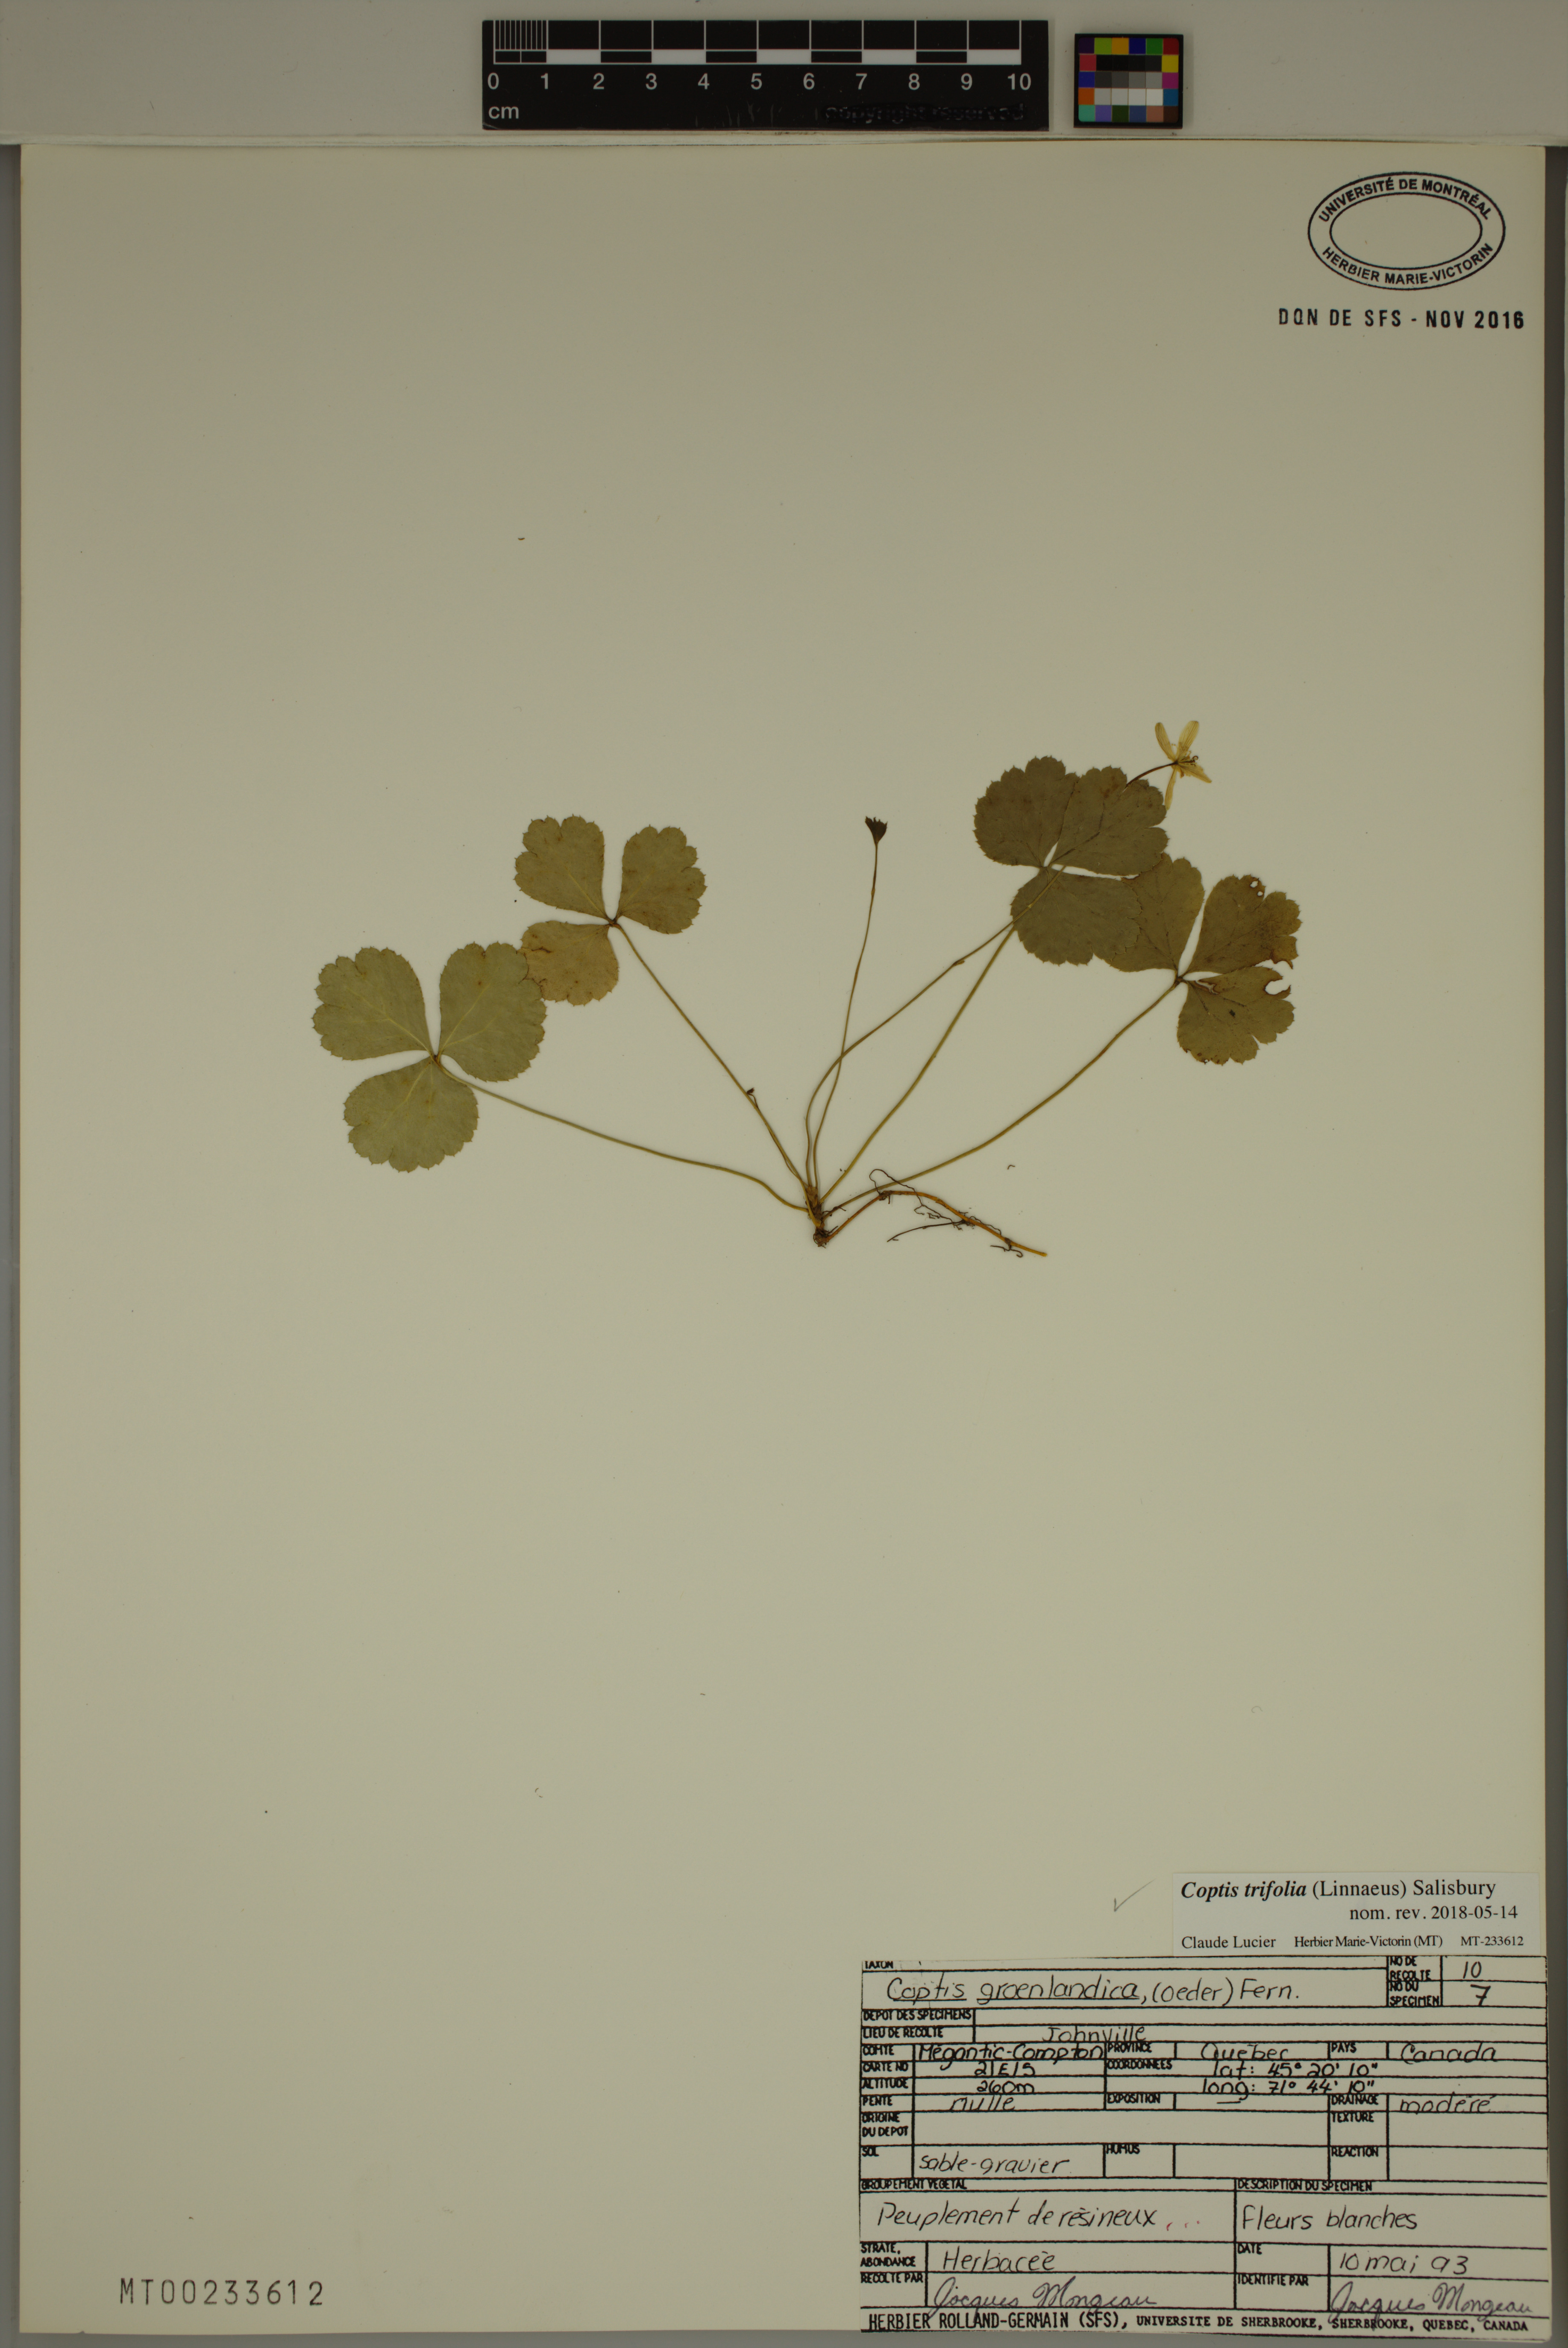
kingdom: Plantae
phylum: Tracheophyta
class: Magnoliopsida
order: Ranunculales
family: Ranunculaceae
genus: Coptis
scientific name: Coptis trifolia
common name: Canker-root
